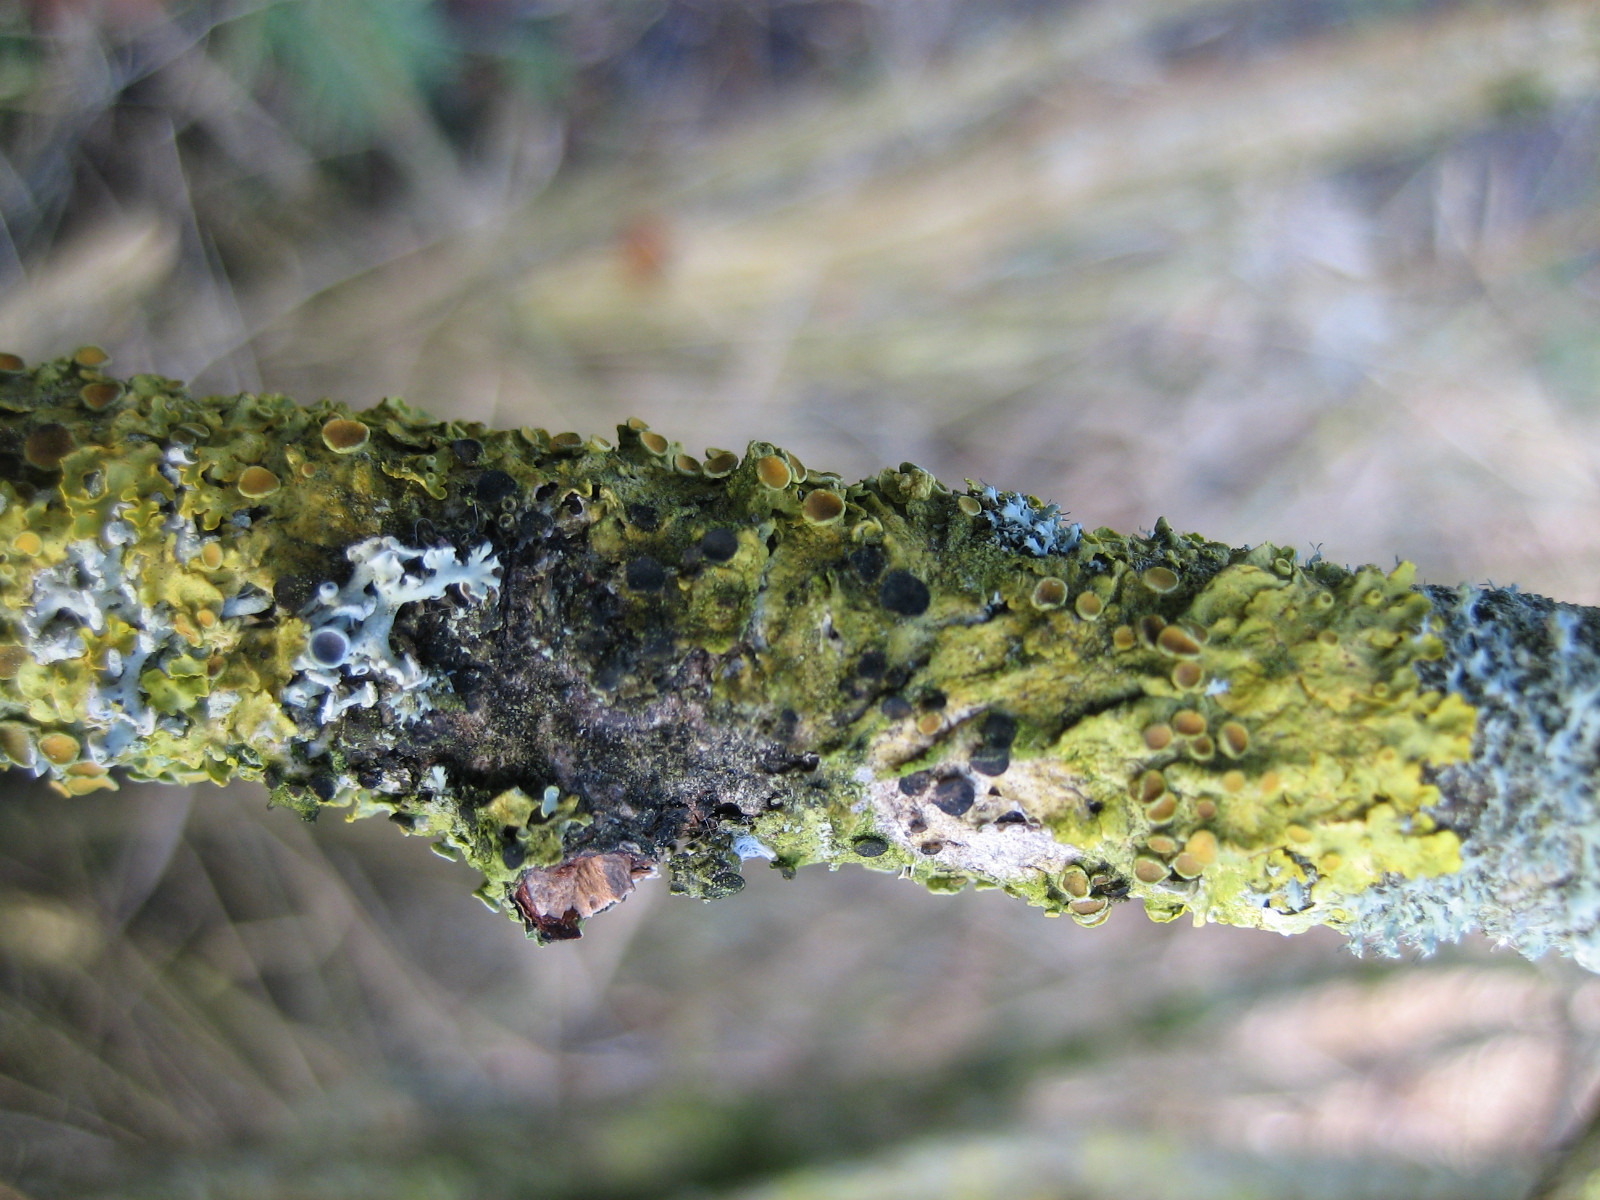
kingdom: Fungi
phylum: Ascomycota
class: Dothideomycetes
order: Mycosphaerellales
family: Teratosphaeriaceae
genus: Xanthoriicola
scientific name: Xanthoriicola physciae
